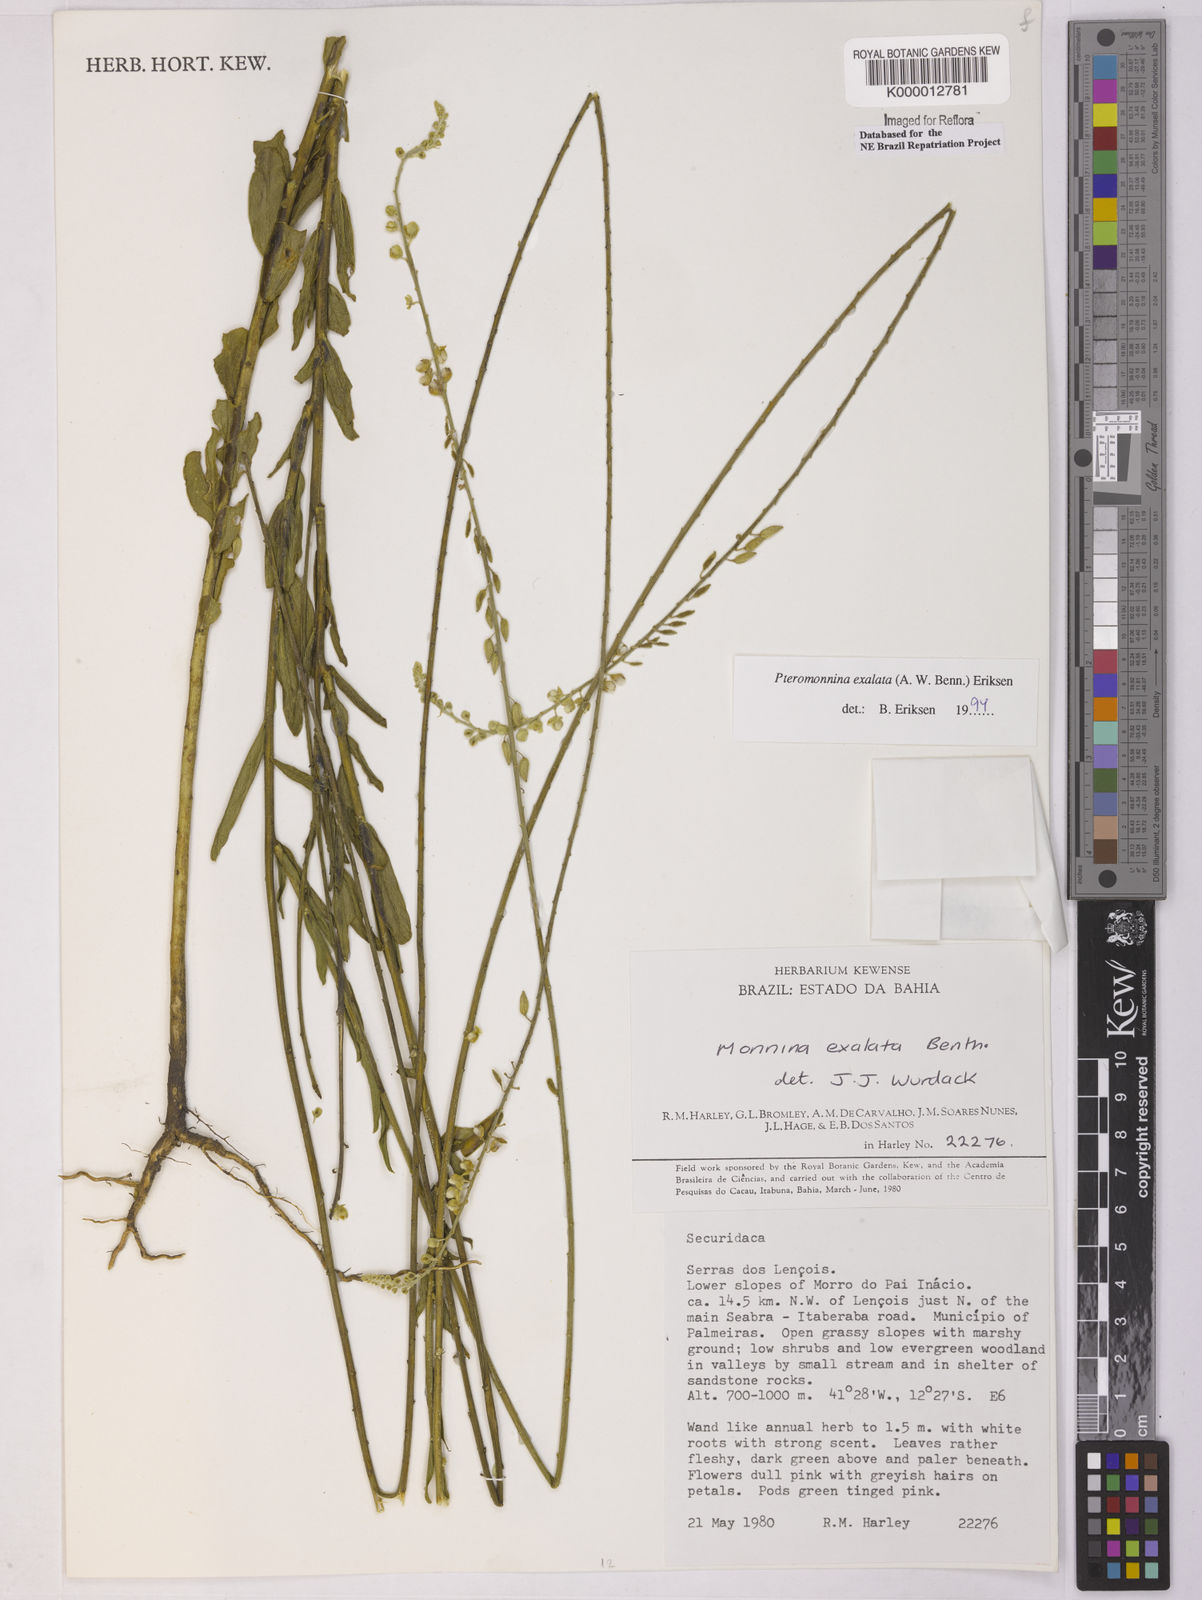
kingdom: Plantae
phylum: Tracheophyta
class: Magnoliopsida
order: Fabales
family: Polygalaceae
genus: Monnina
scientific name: Monnina exalata
